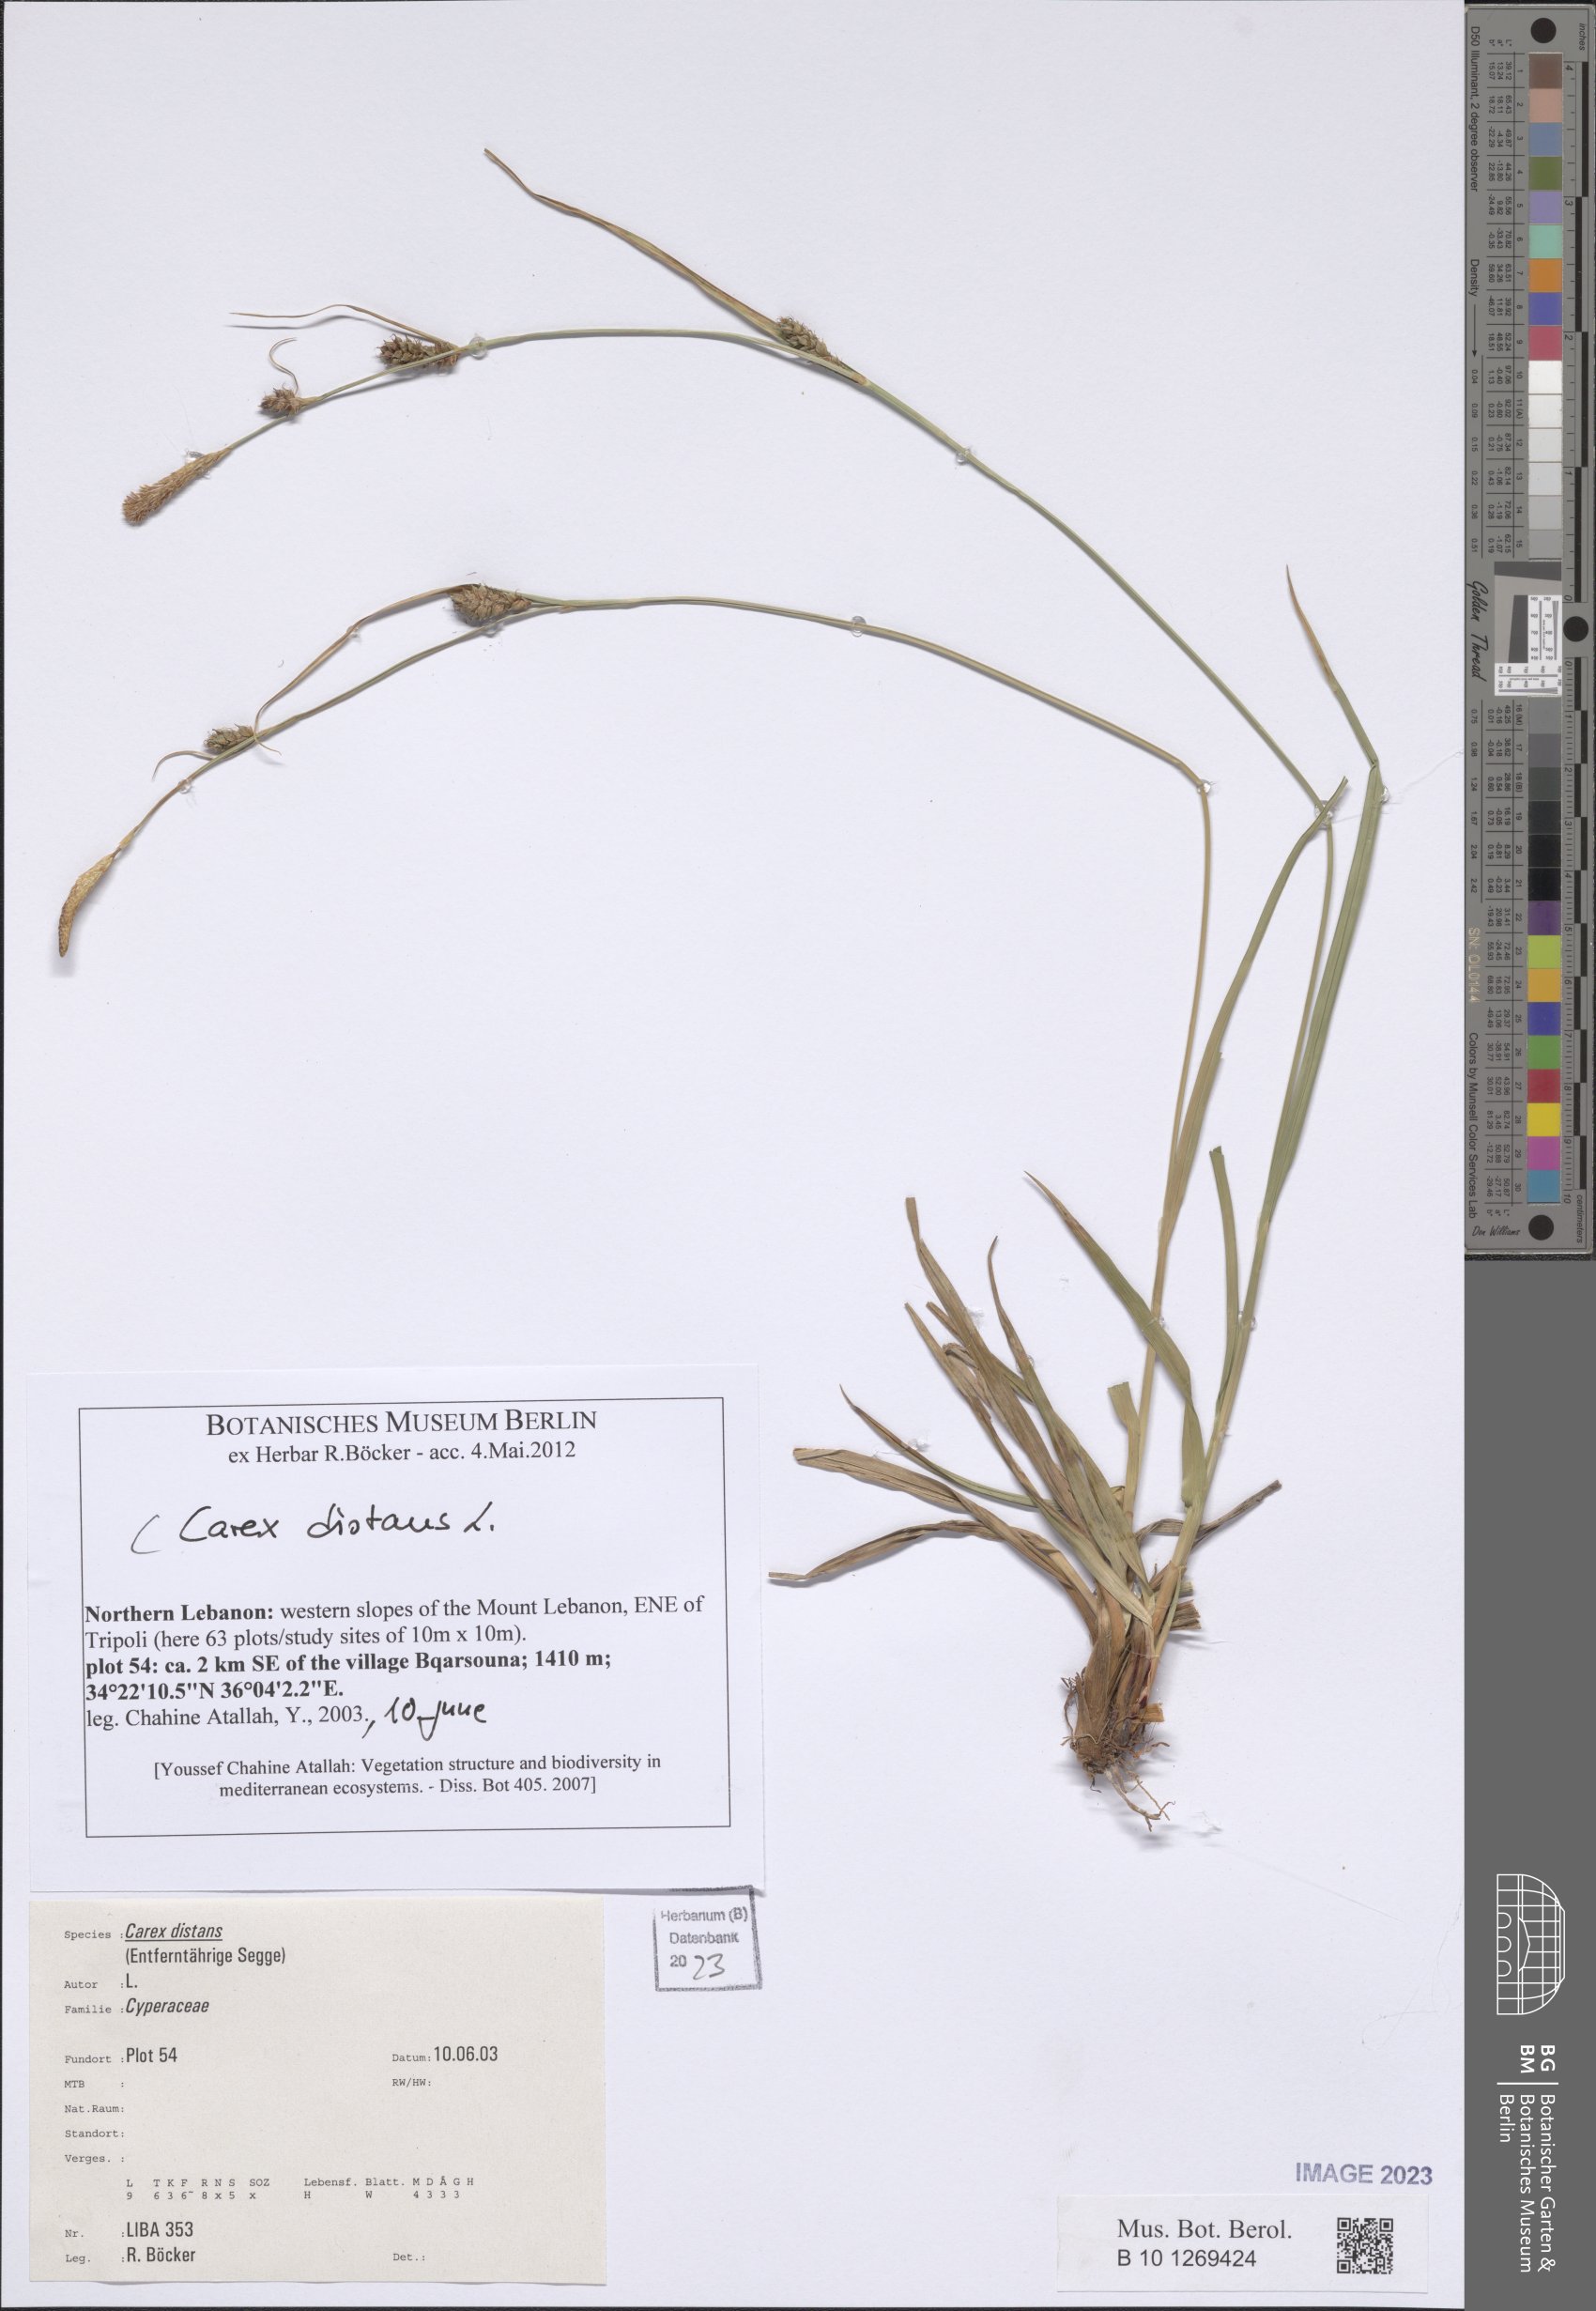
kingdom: Plantae
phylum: Tracheophyta
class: Liliopsida
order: Poales
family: Cyperaceae
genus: Carex
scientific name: Carex distans
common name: Distant sedge
